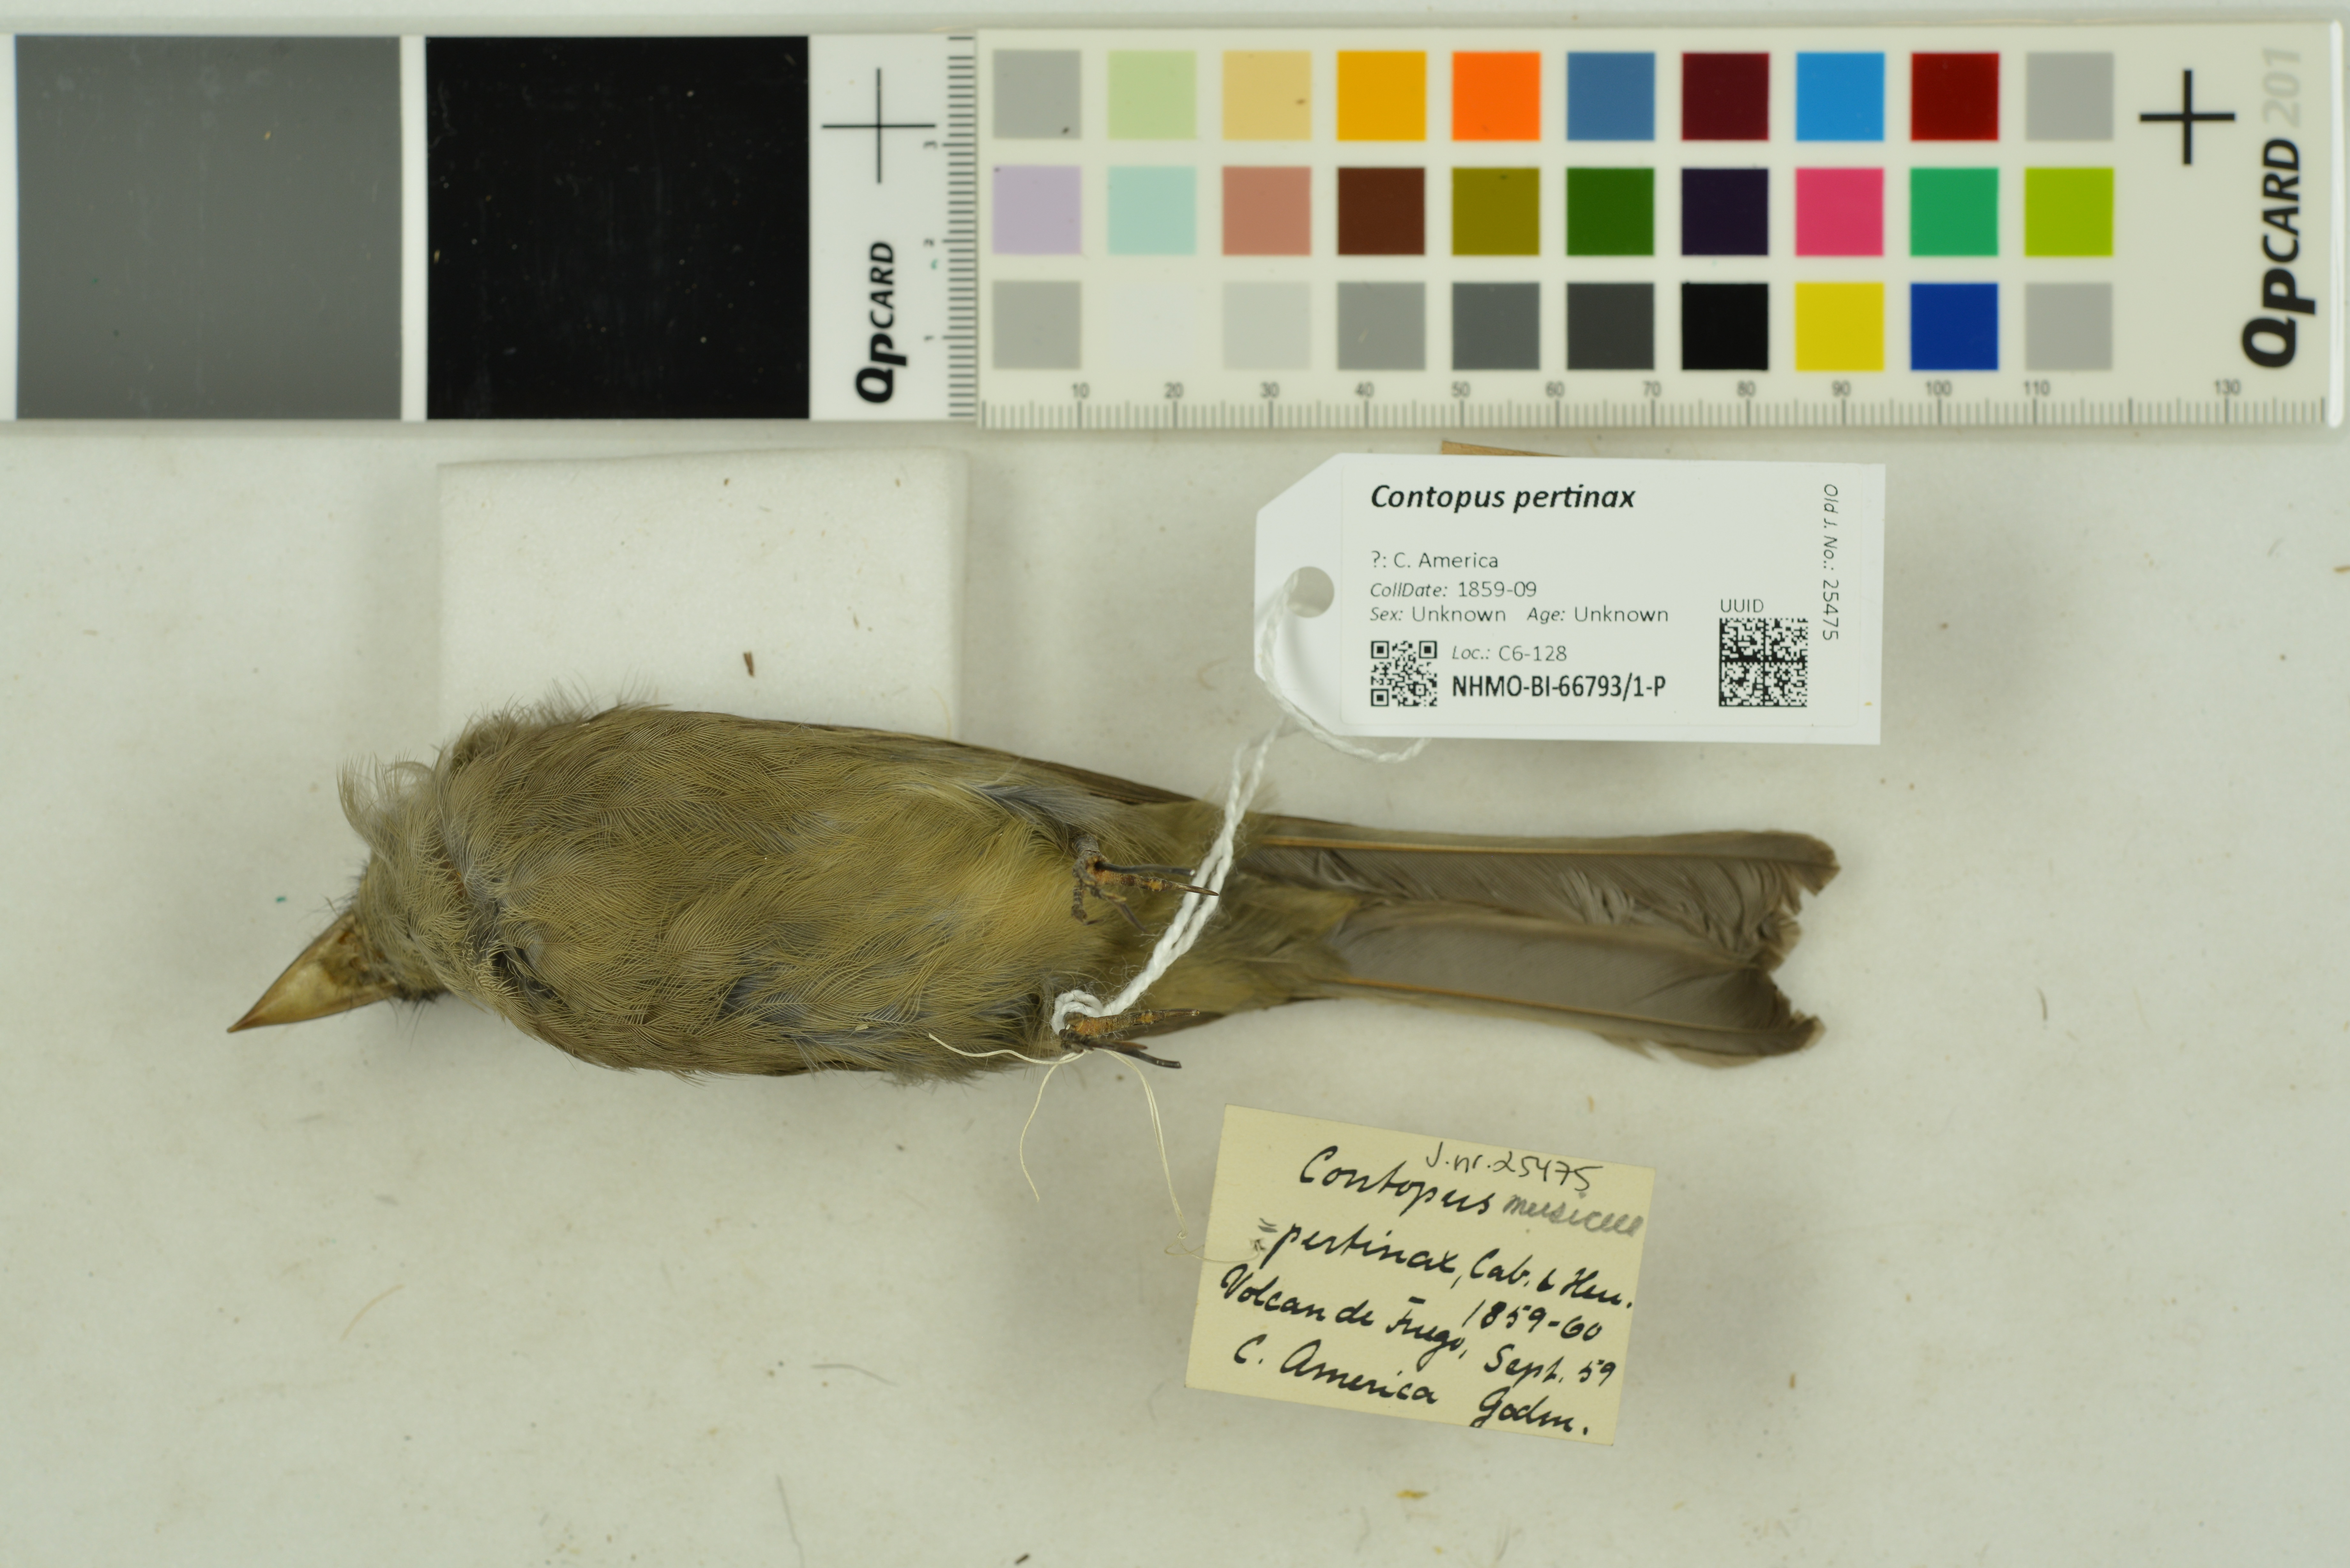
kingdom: Animalia
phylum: Chordata
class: Aves
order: Passeriformes
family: Tyrannidae
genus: Contopus
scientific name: Contopus pertinax
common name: Greater pewee
